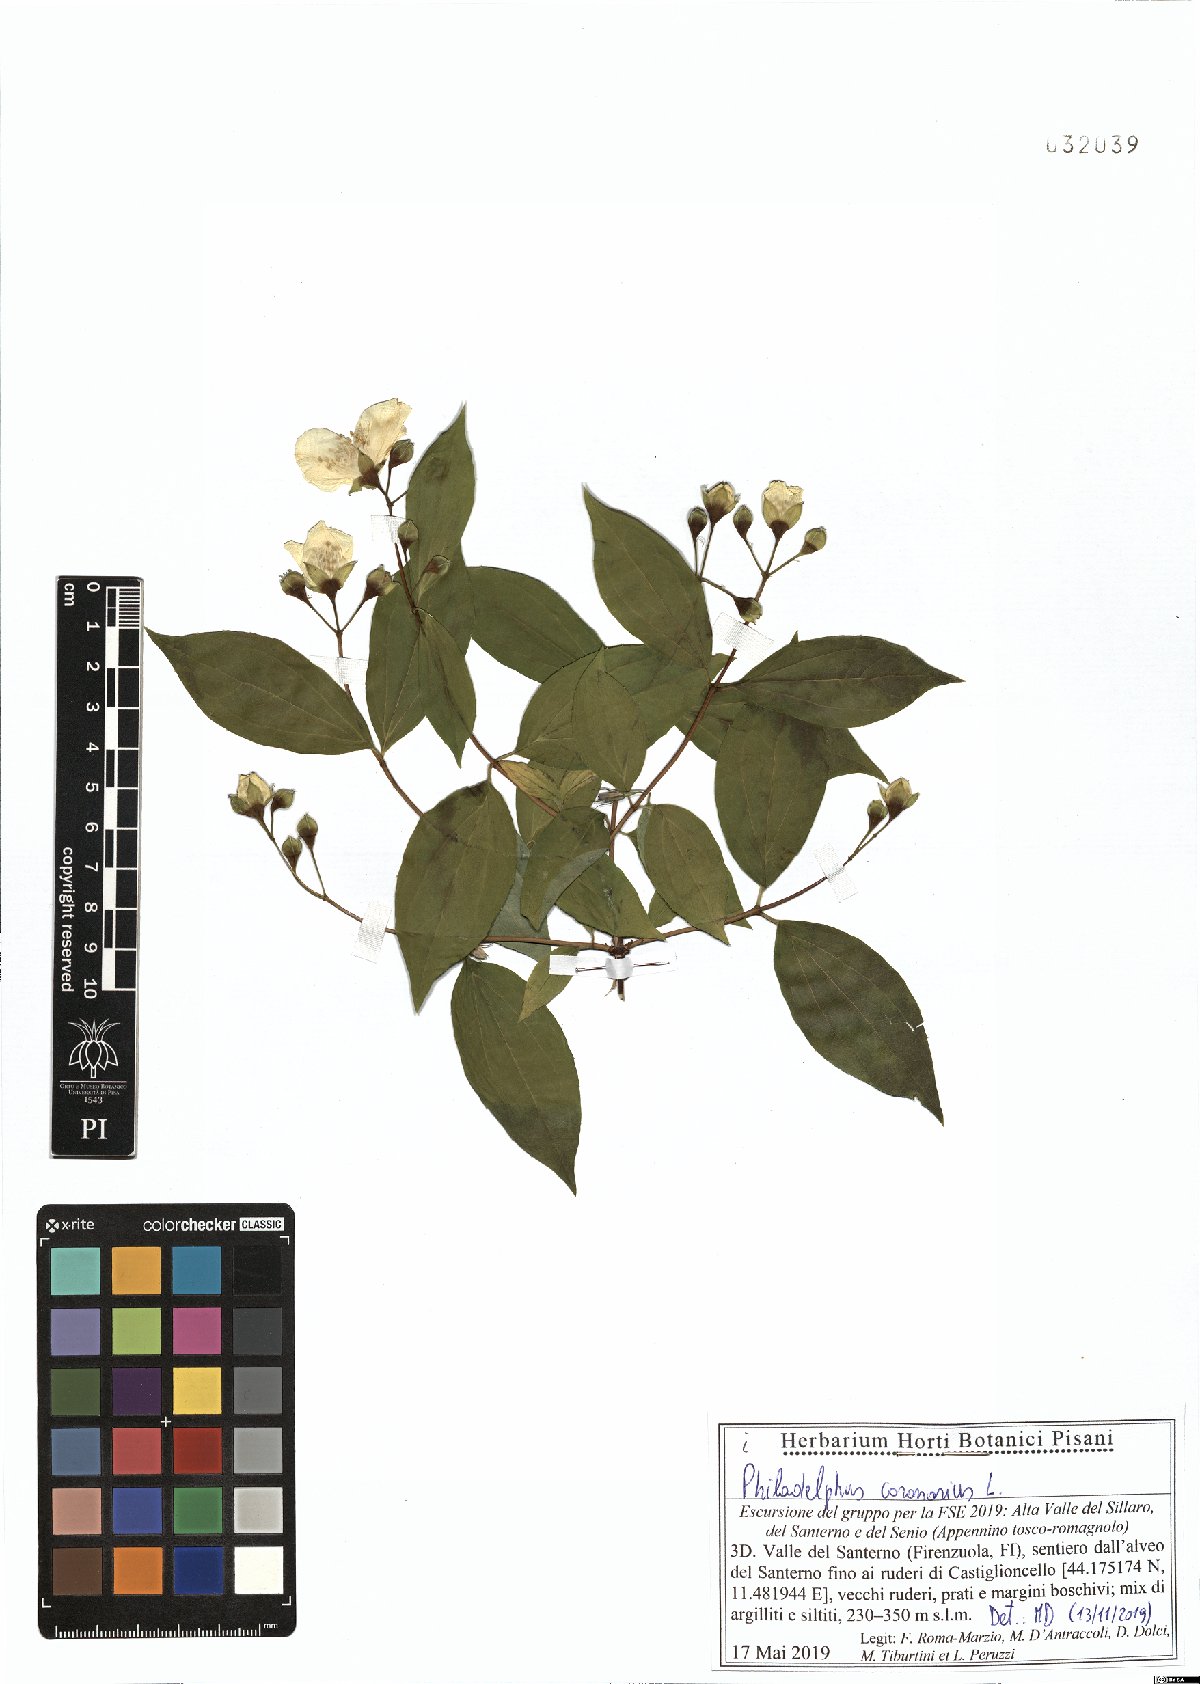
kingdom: Plantae
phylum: Tracheophyta
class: Magnoliopsida
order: Cornales
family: Hydrangeaceae
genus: Philadelphus
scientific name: Philadelphus coronarius
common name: Mock orange
